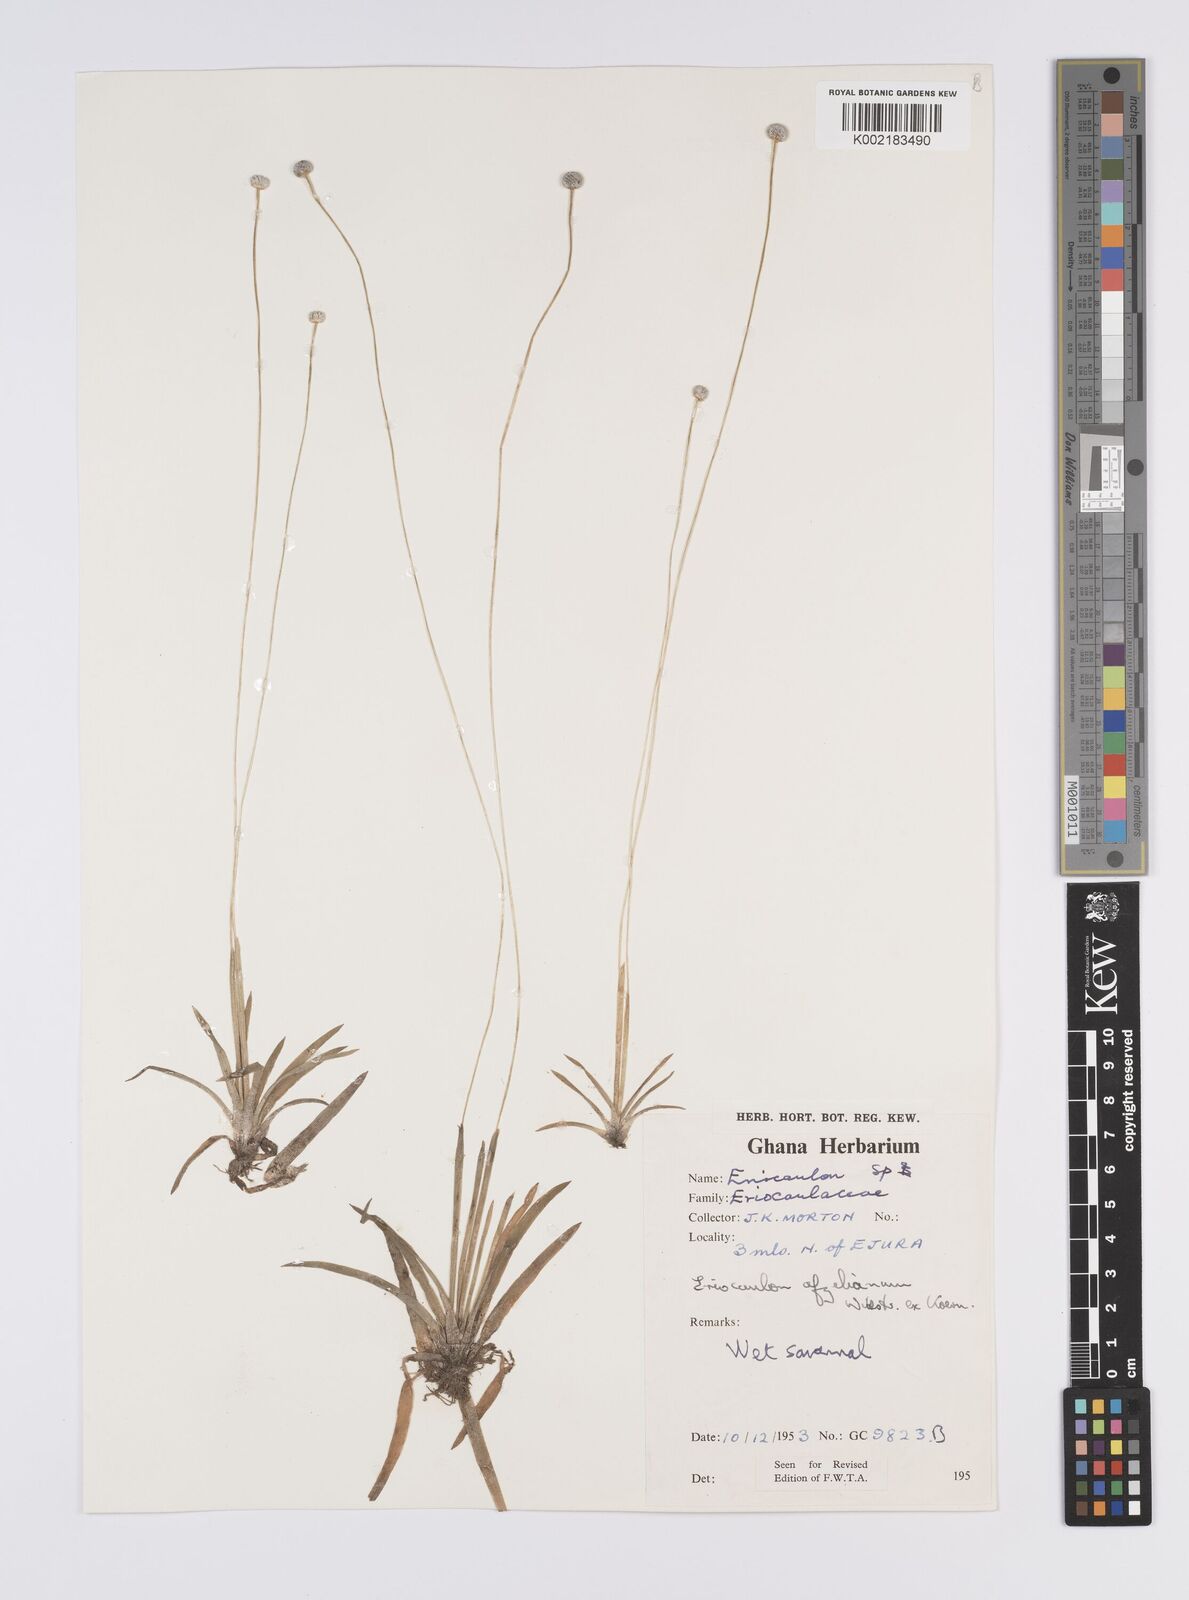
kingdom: Plantae
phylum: Tracheophyta
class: Liliopsida
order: Poales
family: Eriocaulaceae
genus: Eriocaulon
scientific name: Eriocaulon afzelianum
